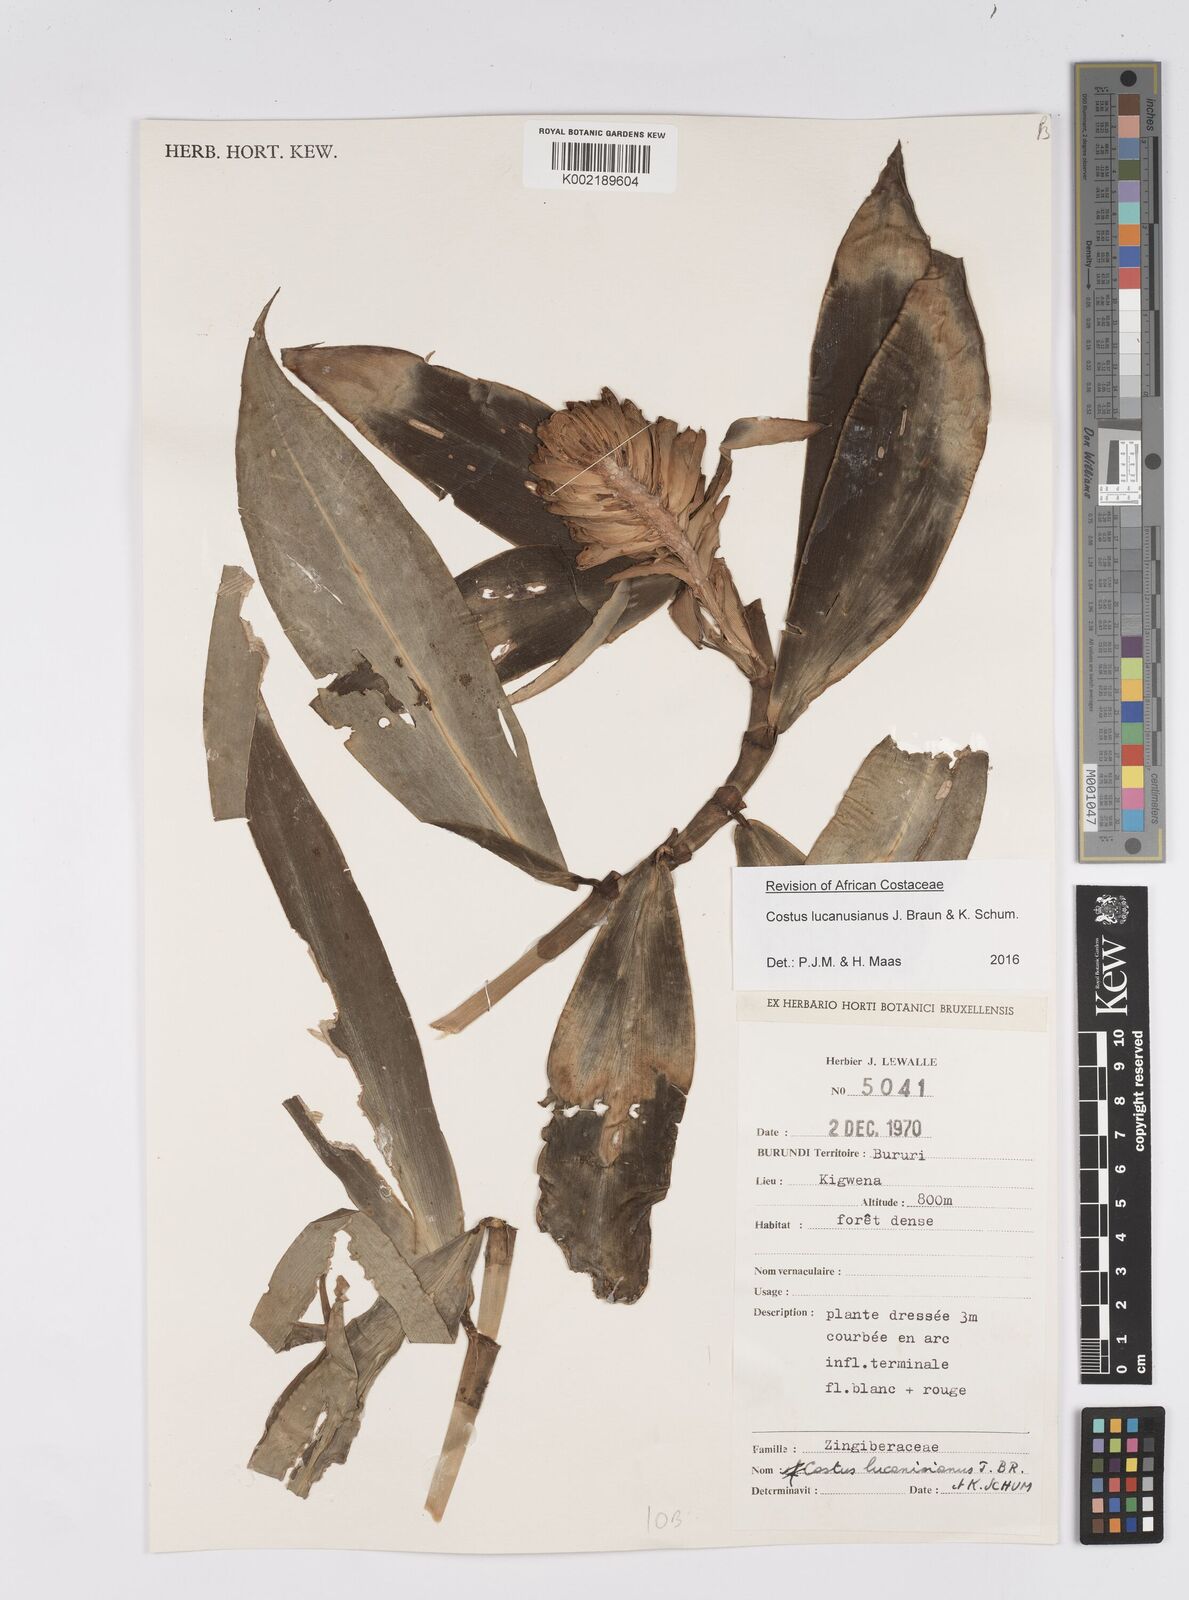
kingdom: Plantae
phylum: Tracheophyta
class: Liliopsida
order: Zingiberales
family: Costaceae
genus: Costus
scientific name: Costus lucanusianus
